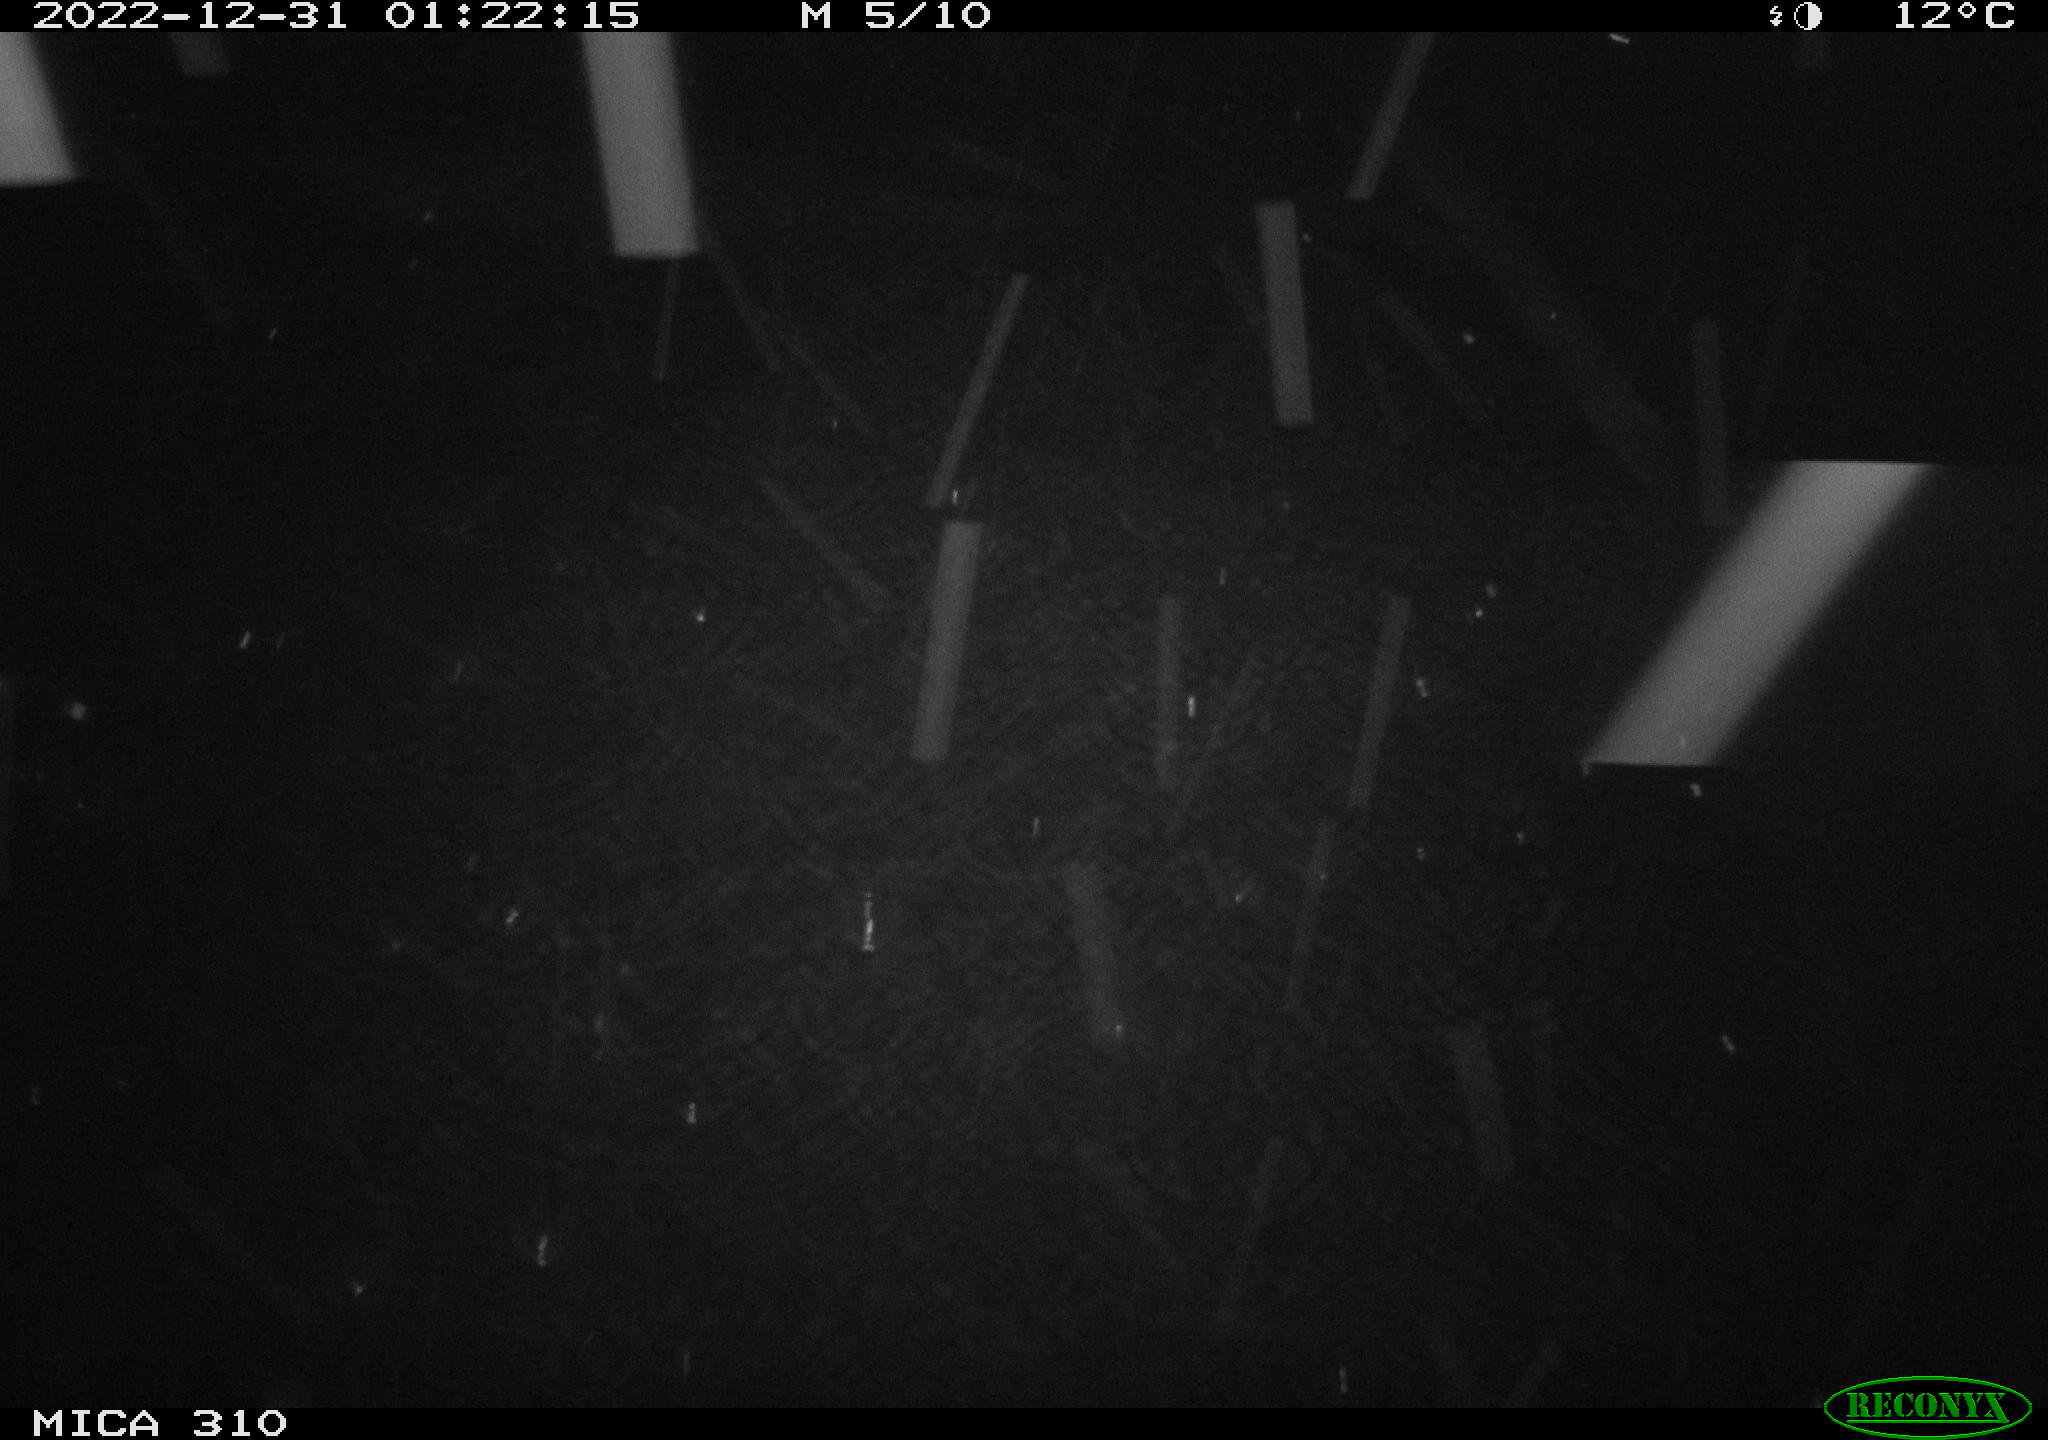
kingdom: Animalia
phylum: Chordata
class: Mammalia
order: Rodentia
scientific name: Rodentia
